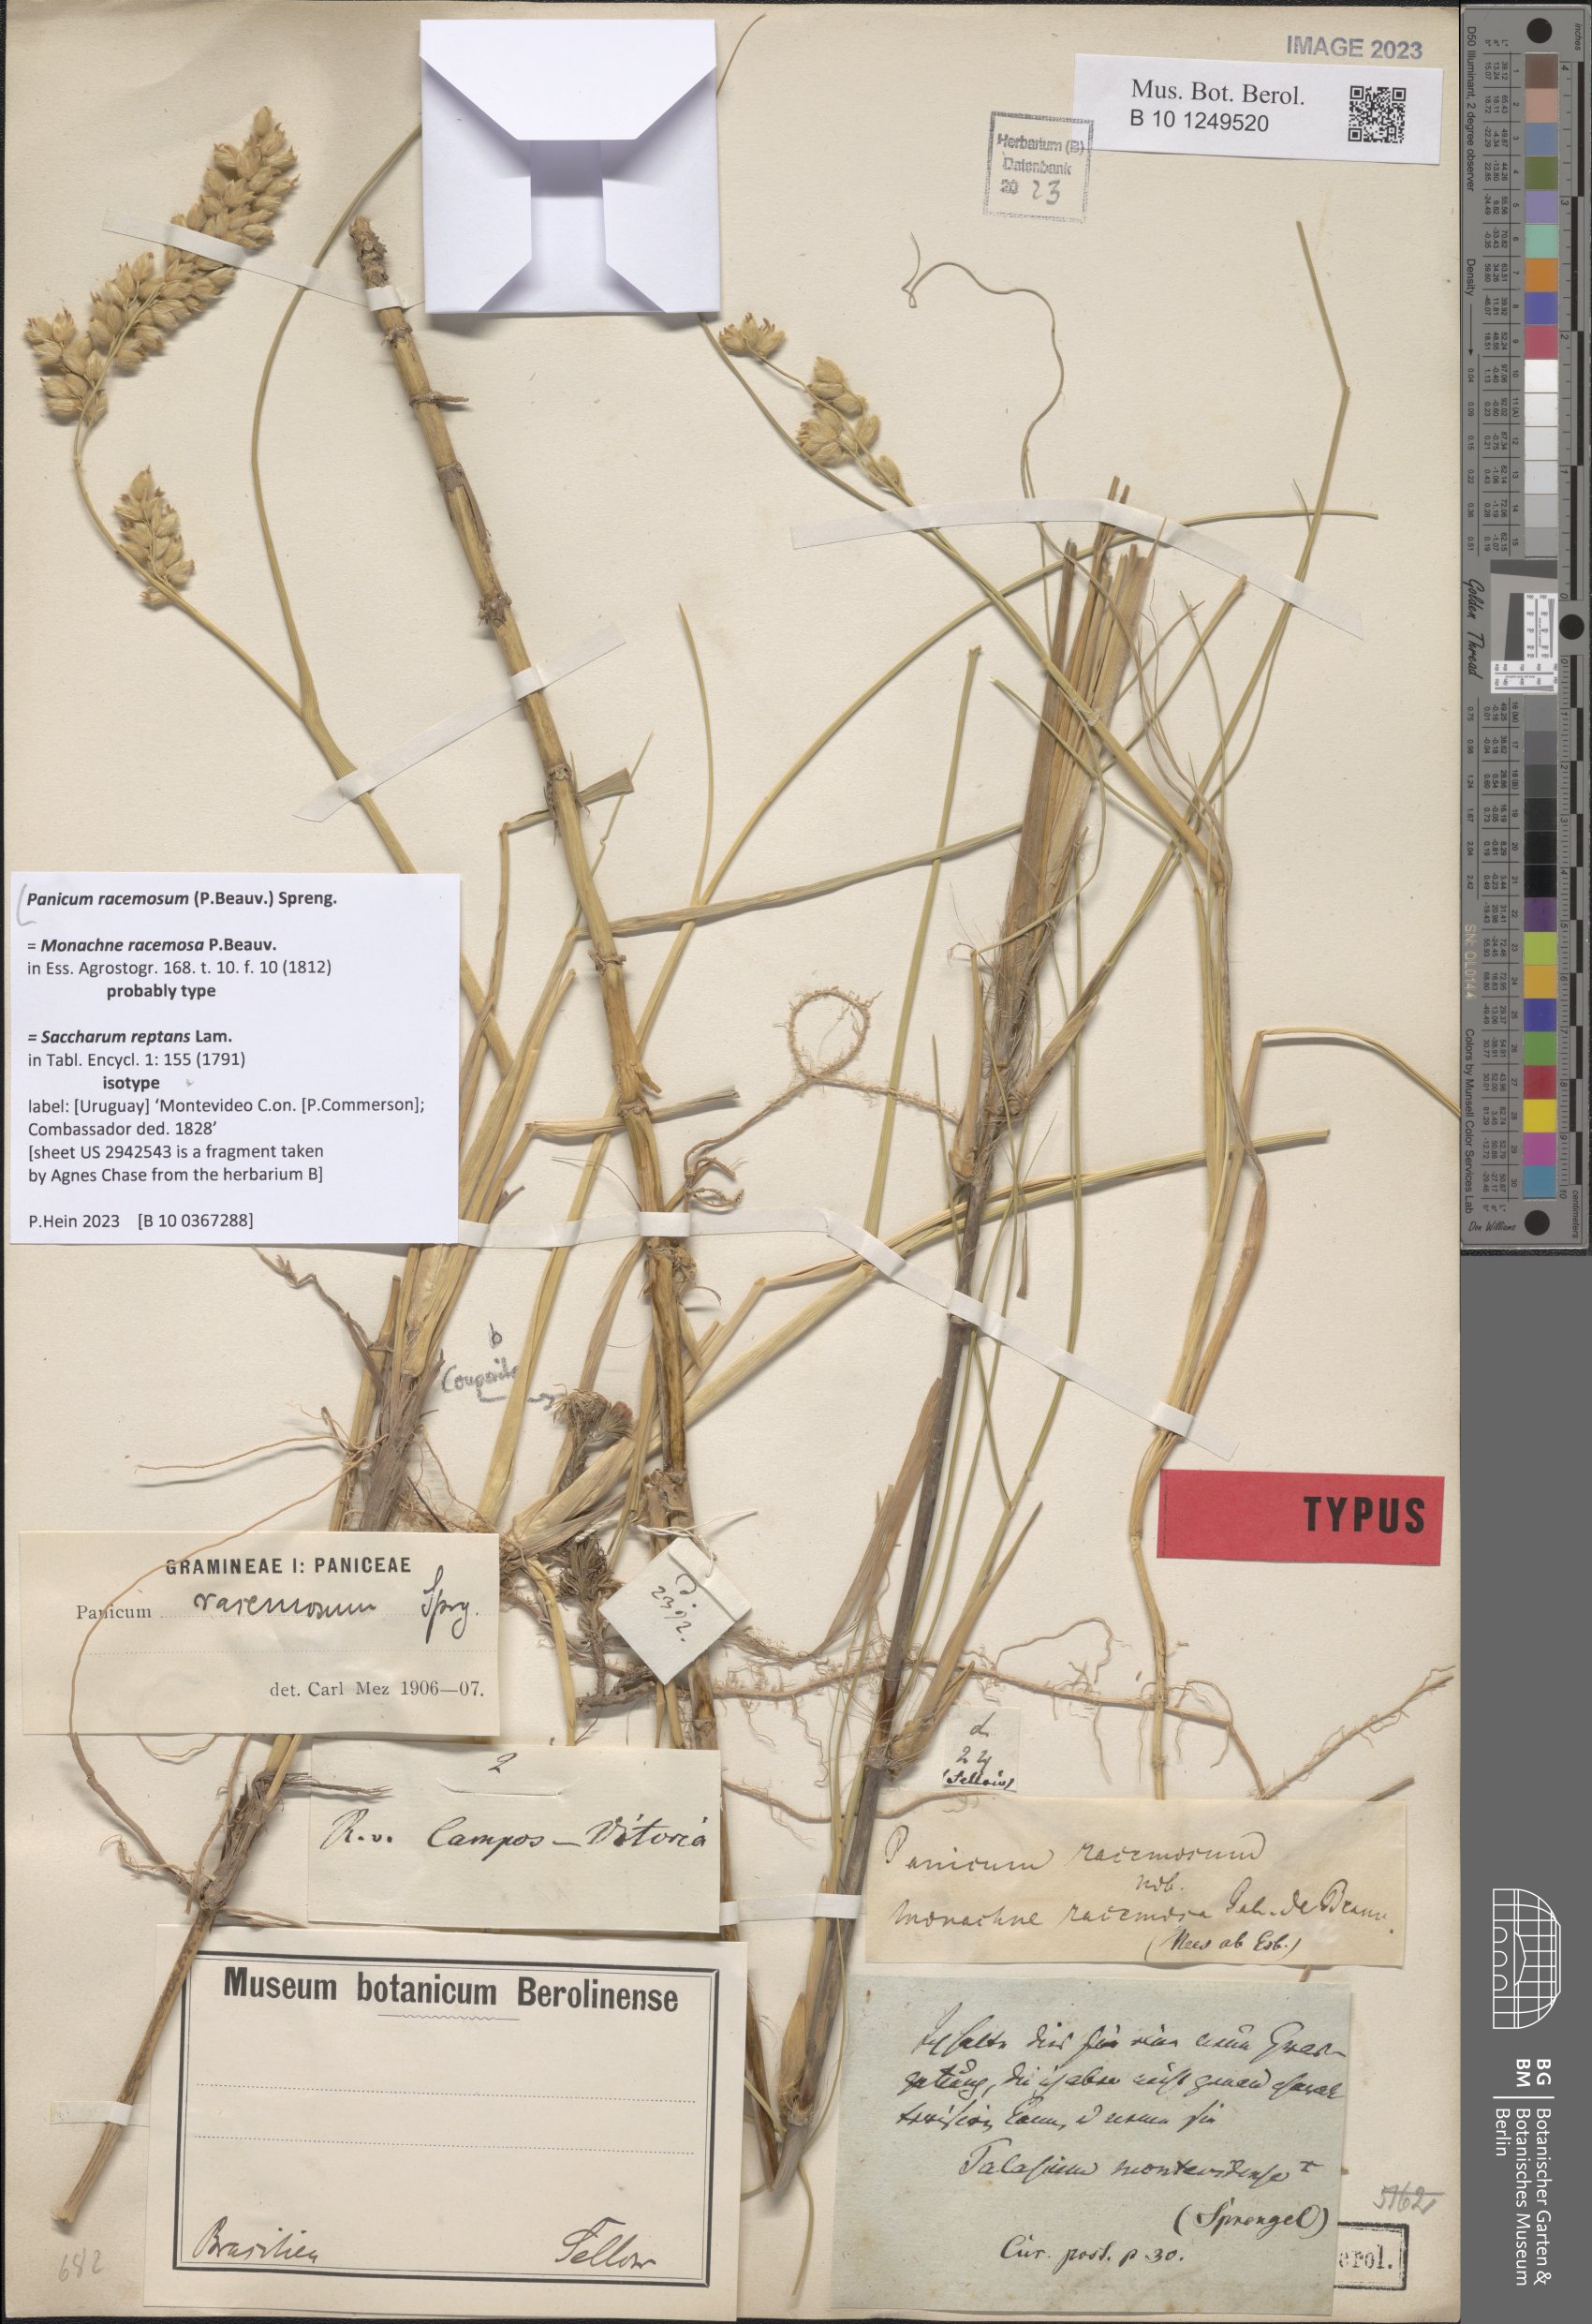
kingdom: Plantae
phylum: Tracheophyta
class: Liliopsida
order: Poales
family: Poaceae
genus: Panicum
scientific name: Panicum racemosum
